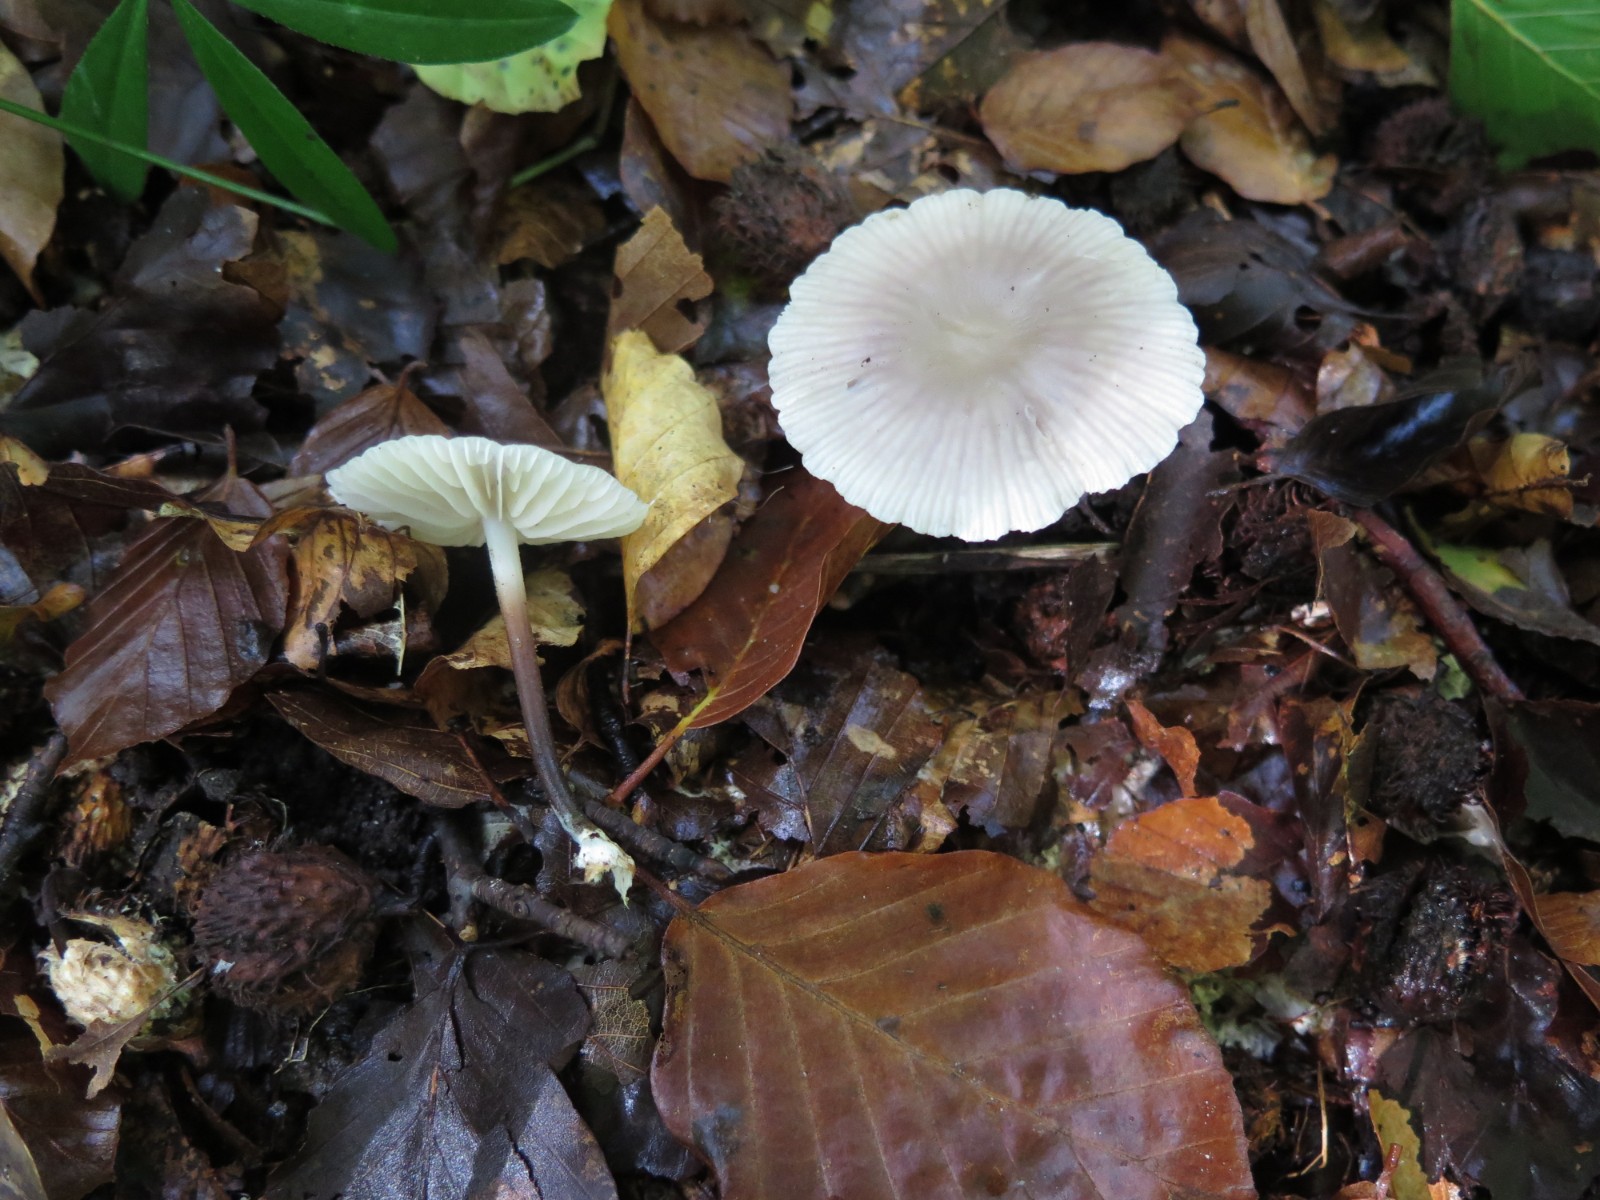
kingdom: Fungi
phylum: Basidiomycota
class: Agaricomycetes
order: Agaricales
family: Marasmiaceae
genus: Marasmius
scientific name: Marasmius wynneae
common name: hvælvet bruskhat
